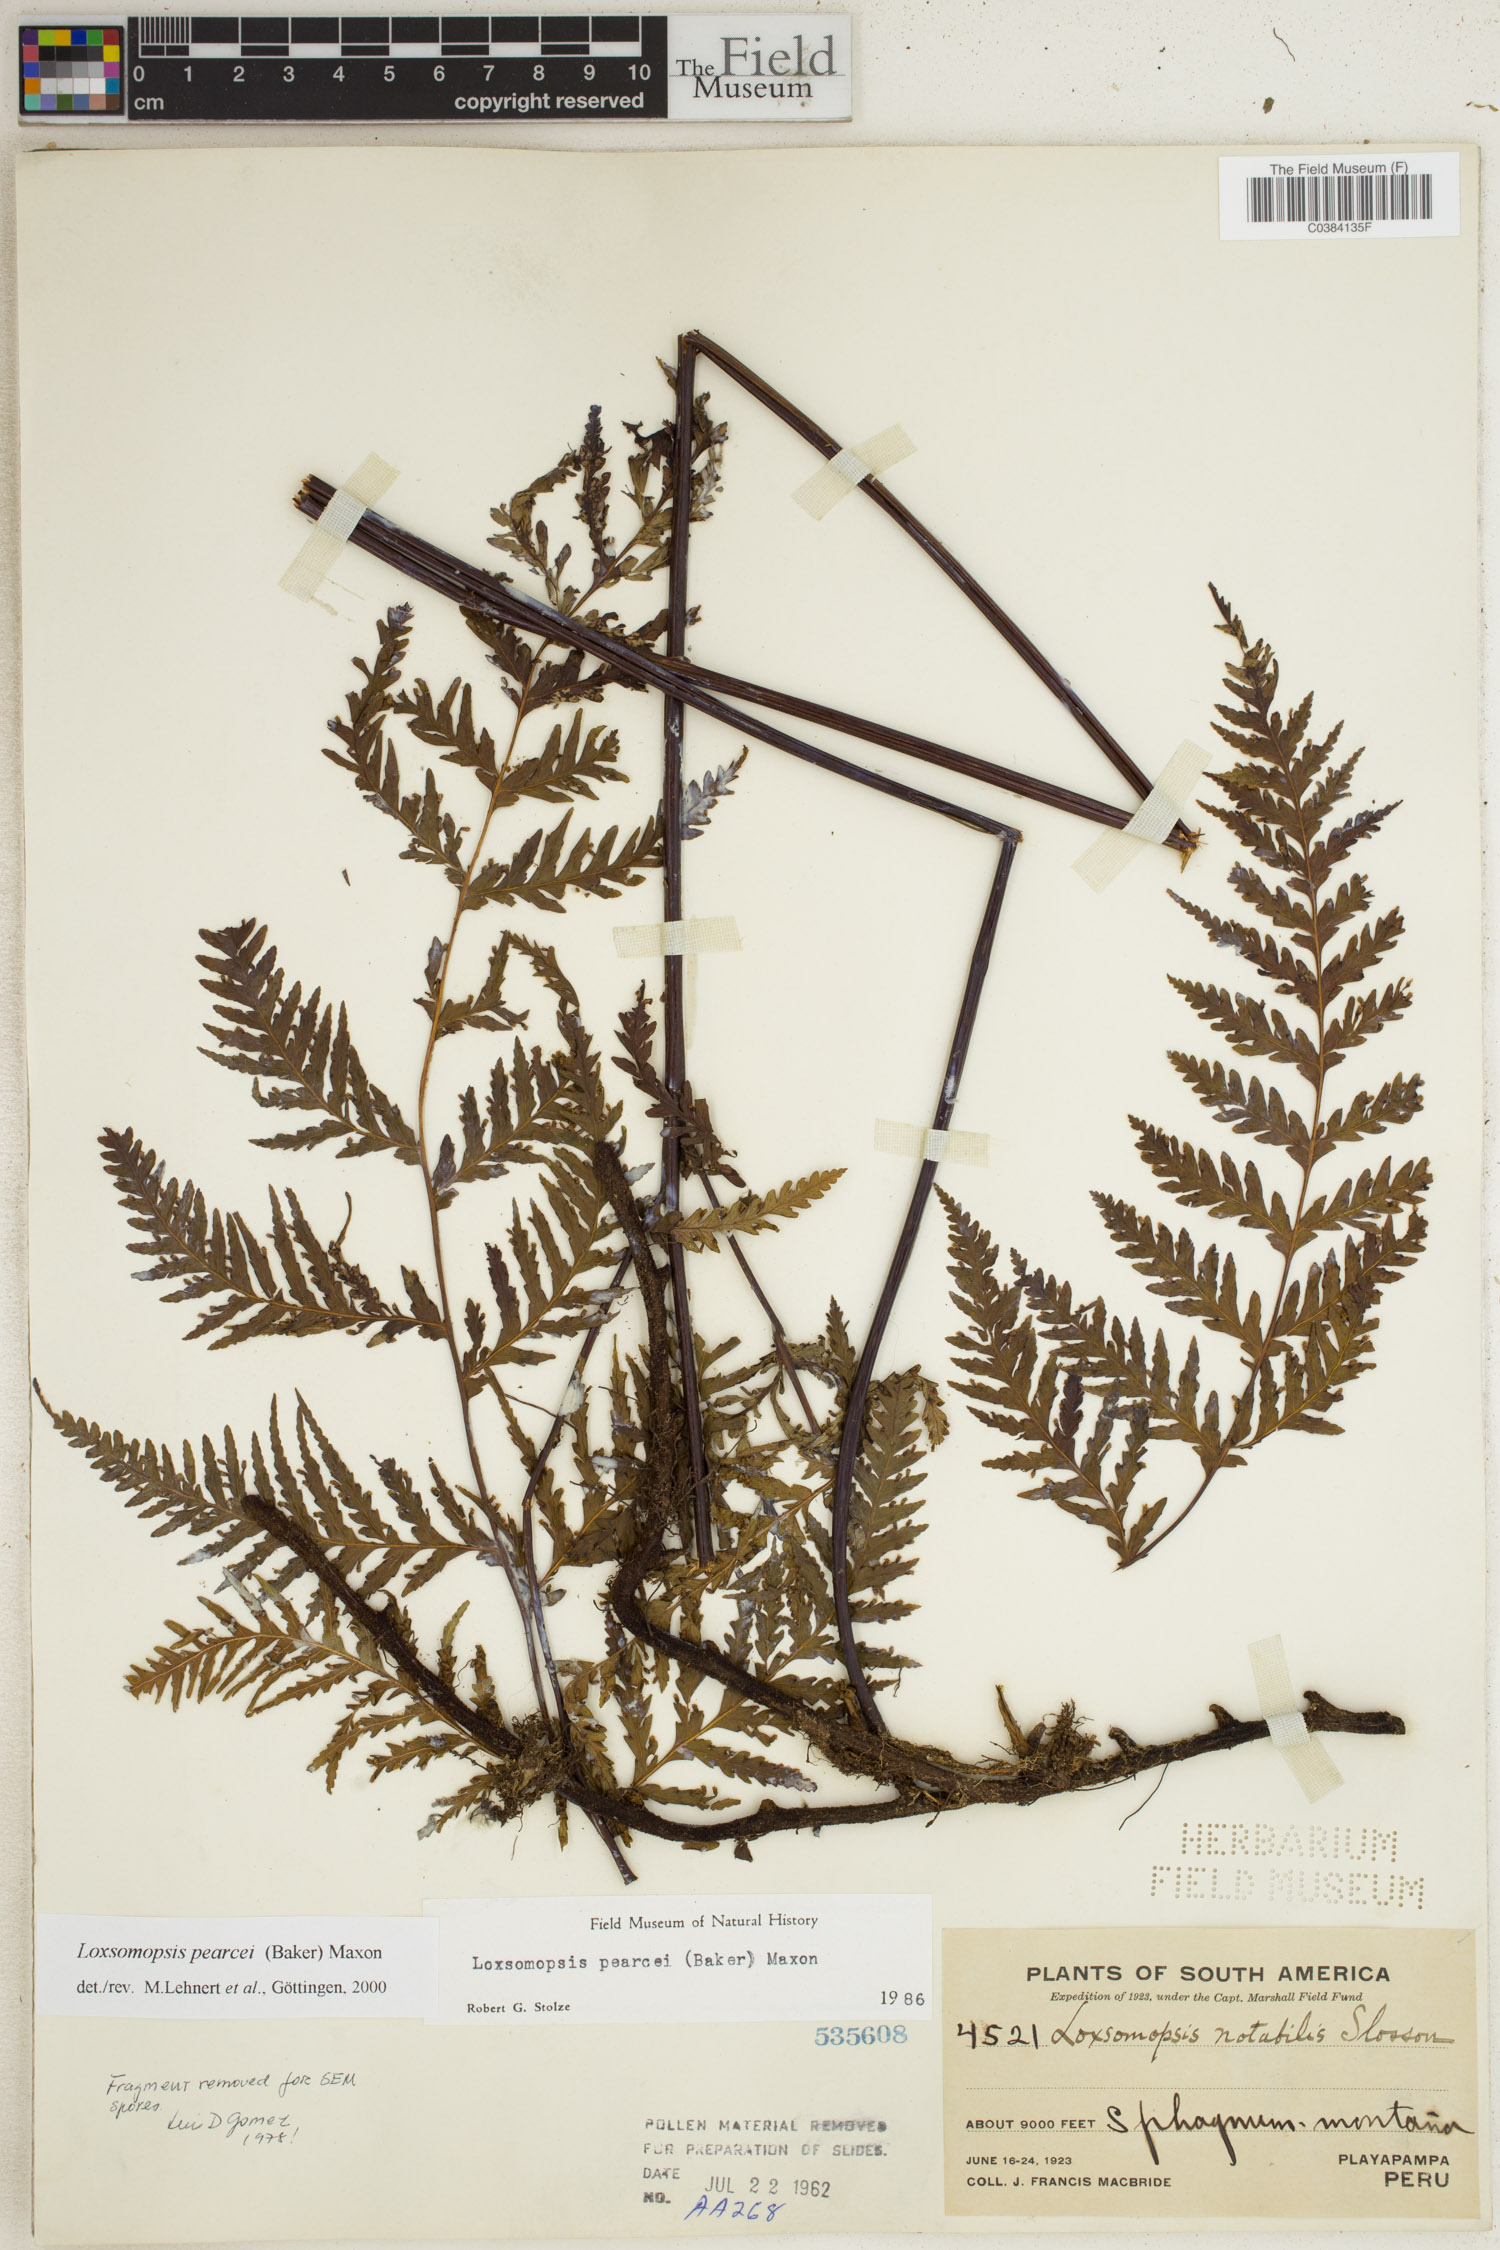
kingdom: Plantae
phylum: Tracheophyta
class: Polypodiopsida
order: Cyatheales
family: Loxsomataceae
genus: Loxsomopsis
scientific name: Loxsomopsis pearcei
